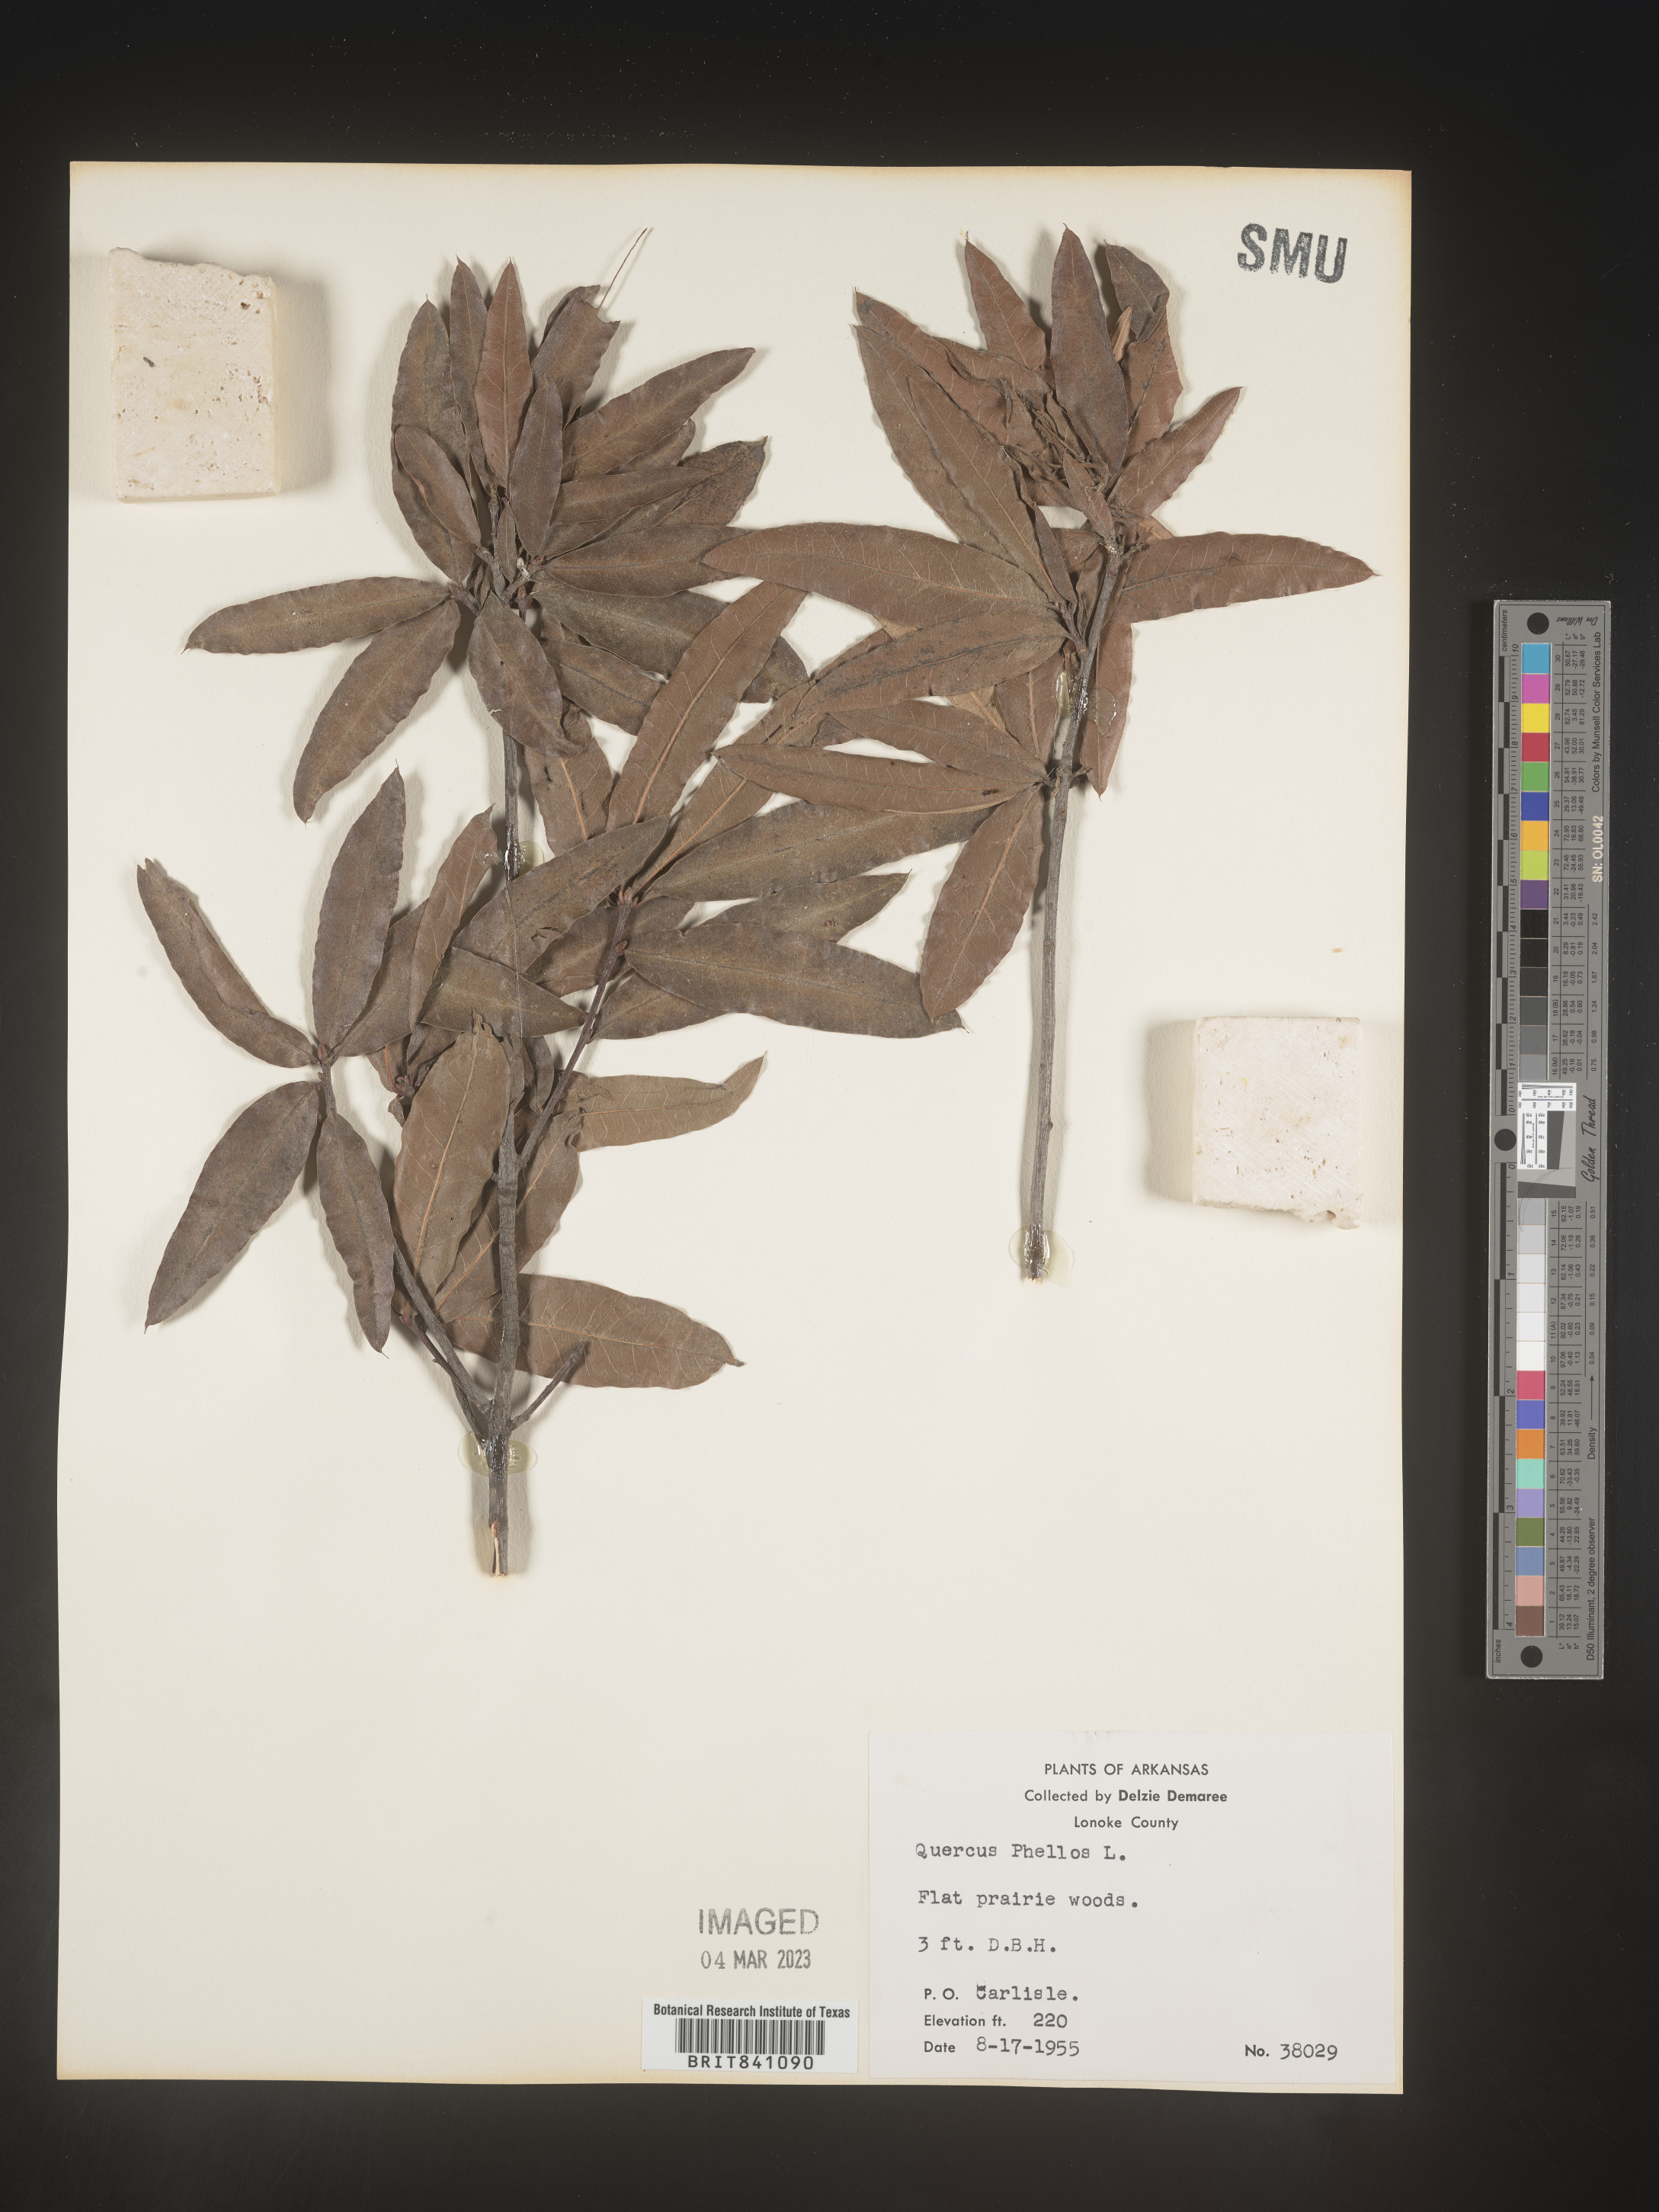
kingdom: Plantae
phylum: Tracheophyta
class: Magnoliopsida
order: Fagales
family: Fagaceae
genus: Quercus
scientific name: Quercus phellos
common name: Willow oak
